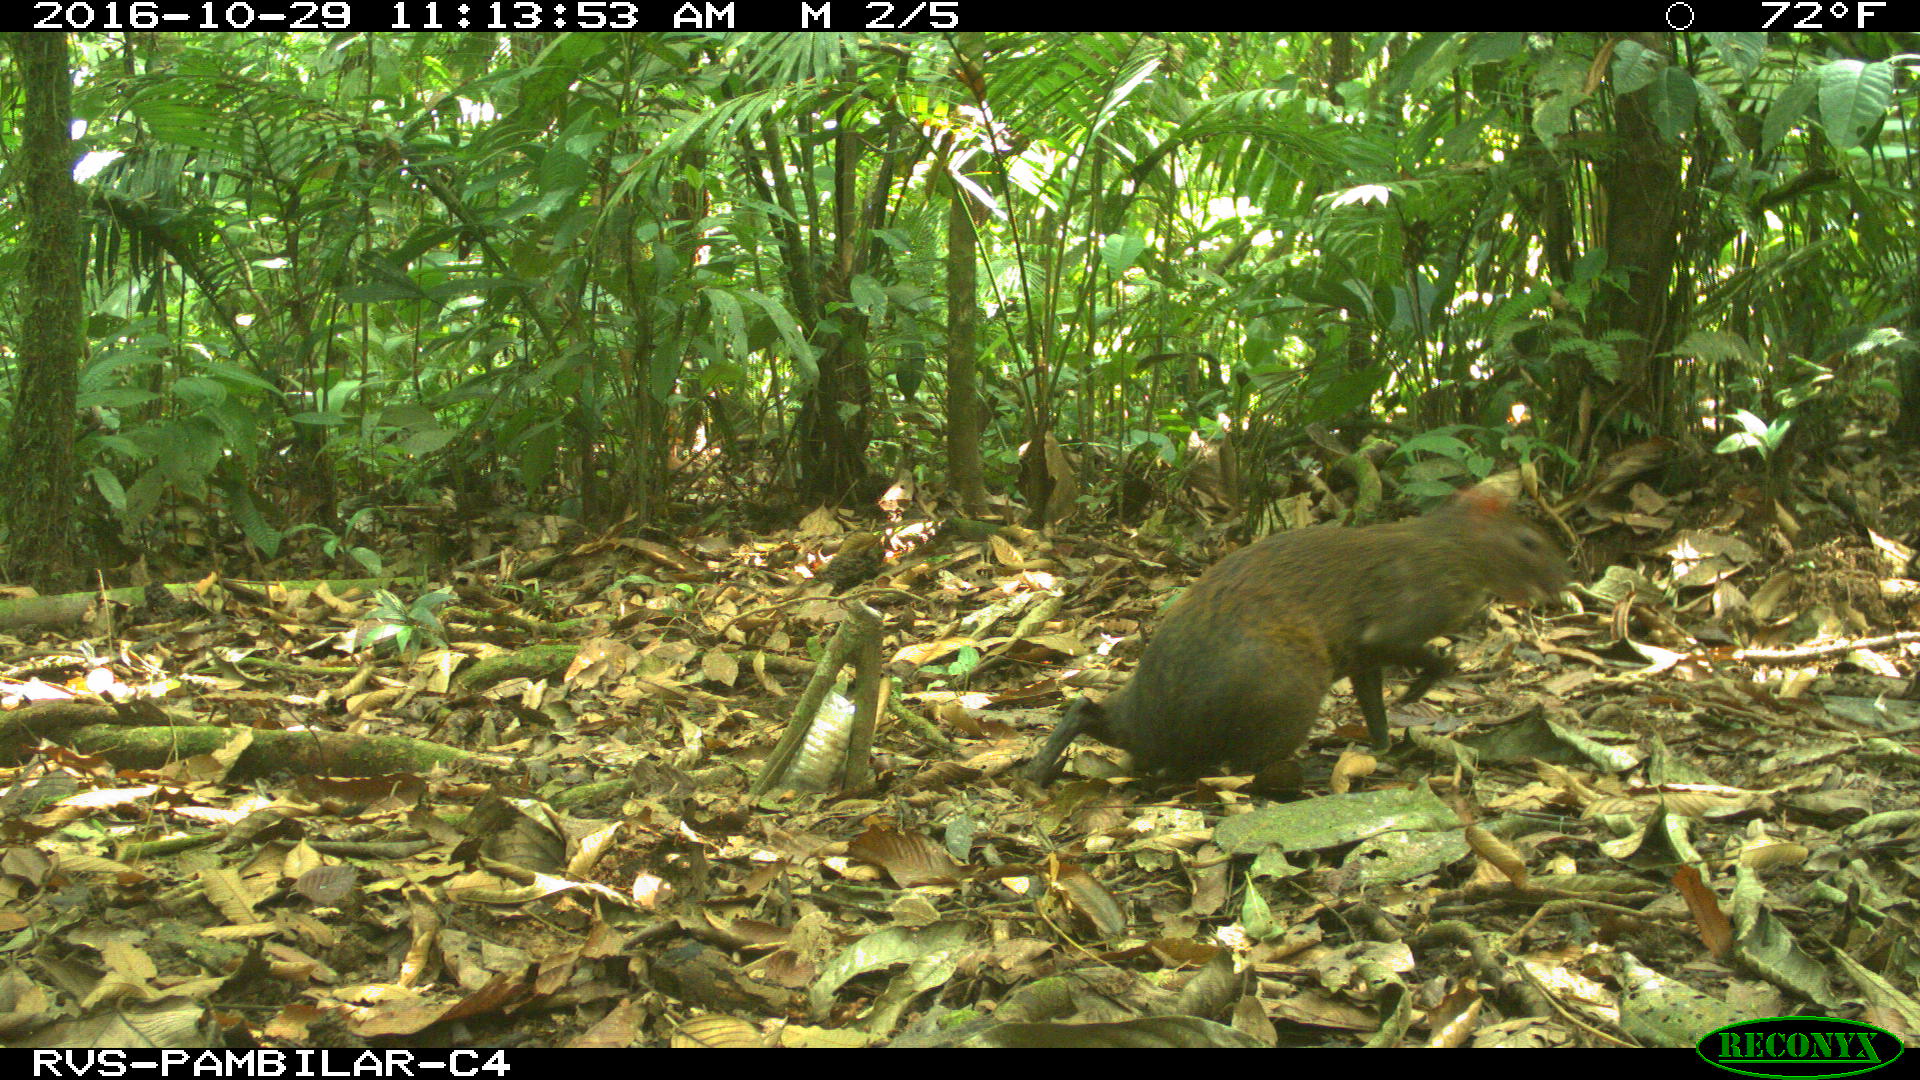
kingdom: Animalia
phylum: Chordata
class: Mammalia
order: Rodentia
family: Dasyproctidae
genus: Dasyprocta
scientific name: Dasyprocta punctata
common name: Central american agouti
